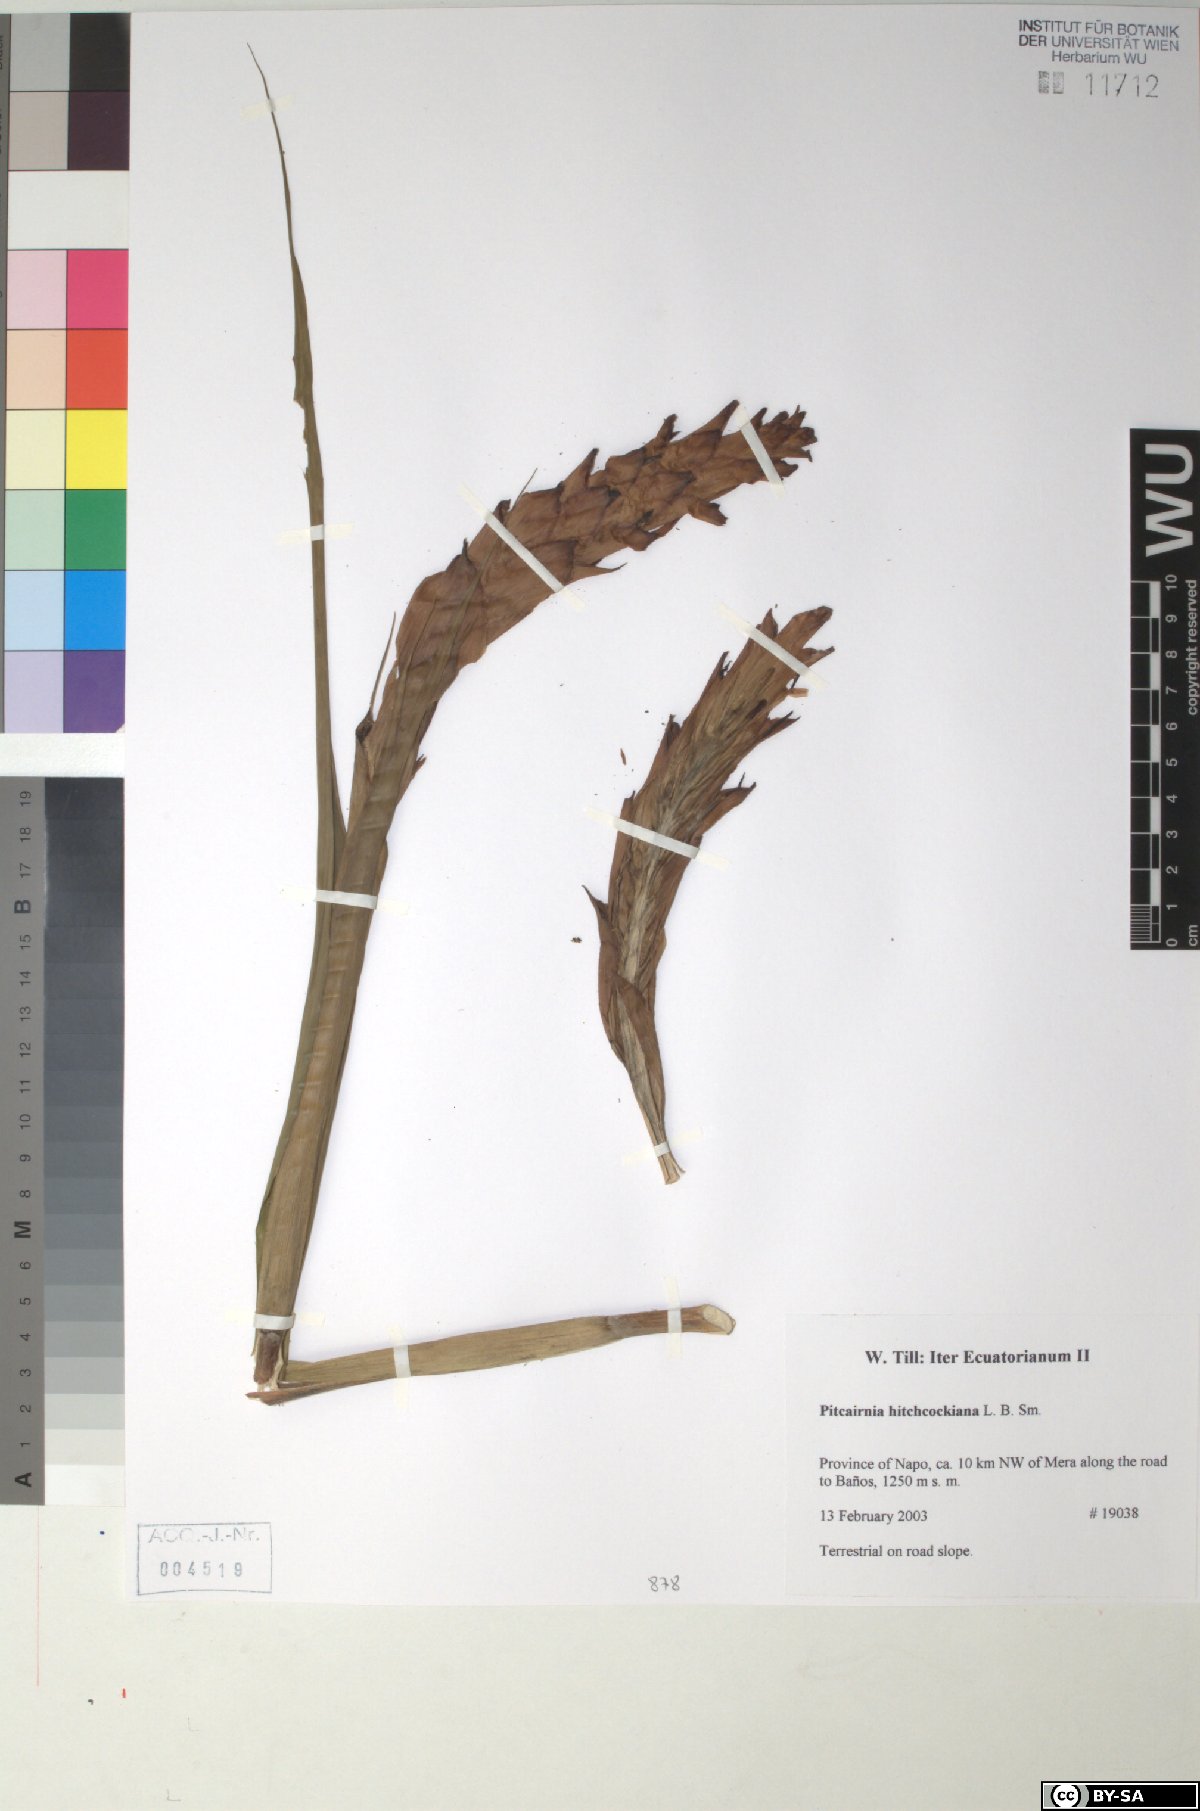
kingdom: Plantae
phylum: Tracheophyta
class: Liliopsida
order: Poales
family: Bromeliaceae
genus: Pitcairnia
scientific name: Pitcairnia hitchcockiana
